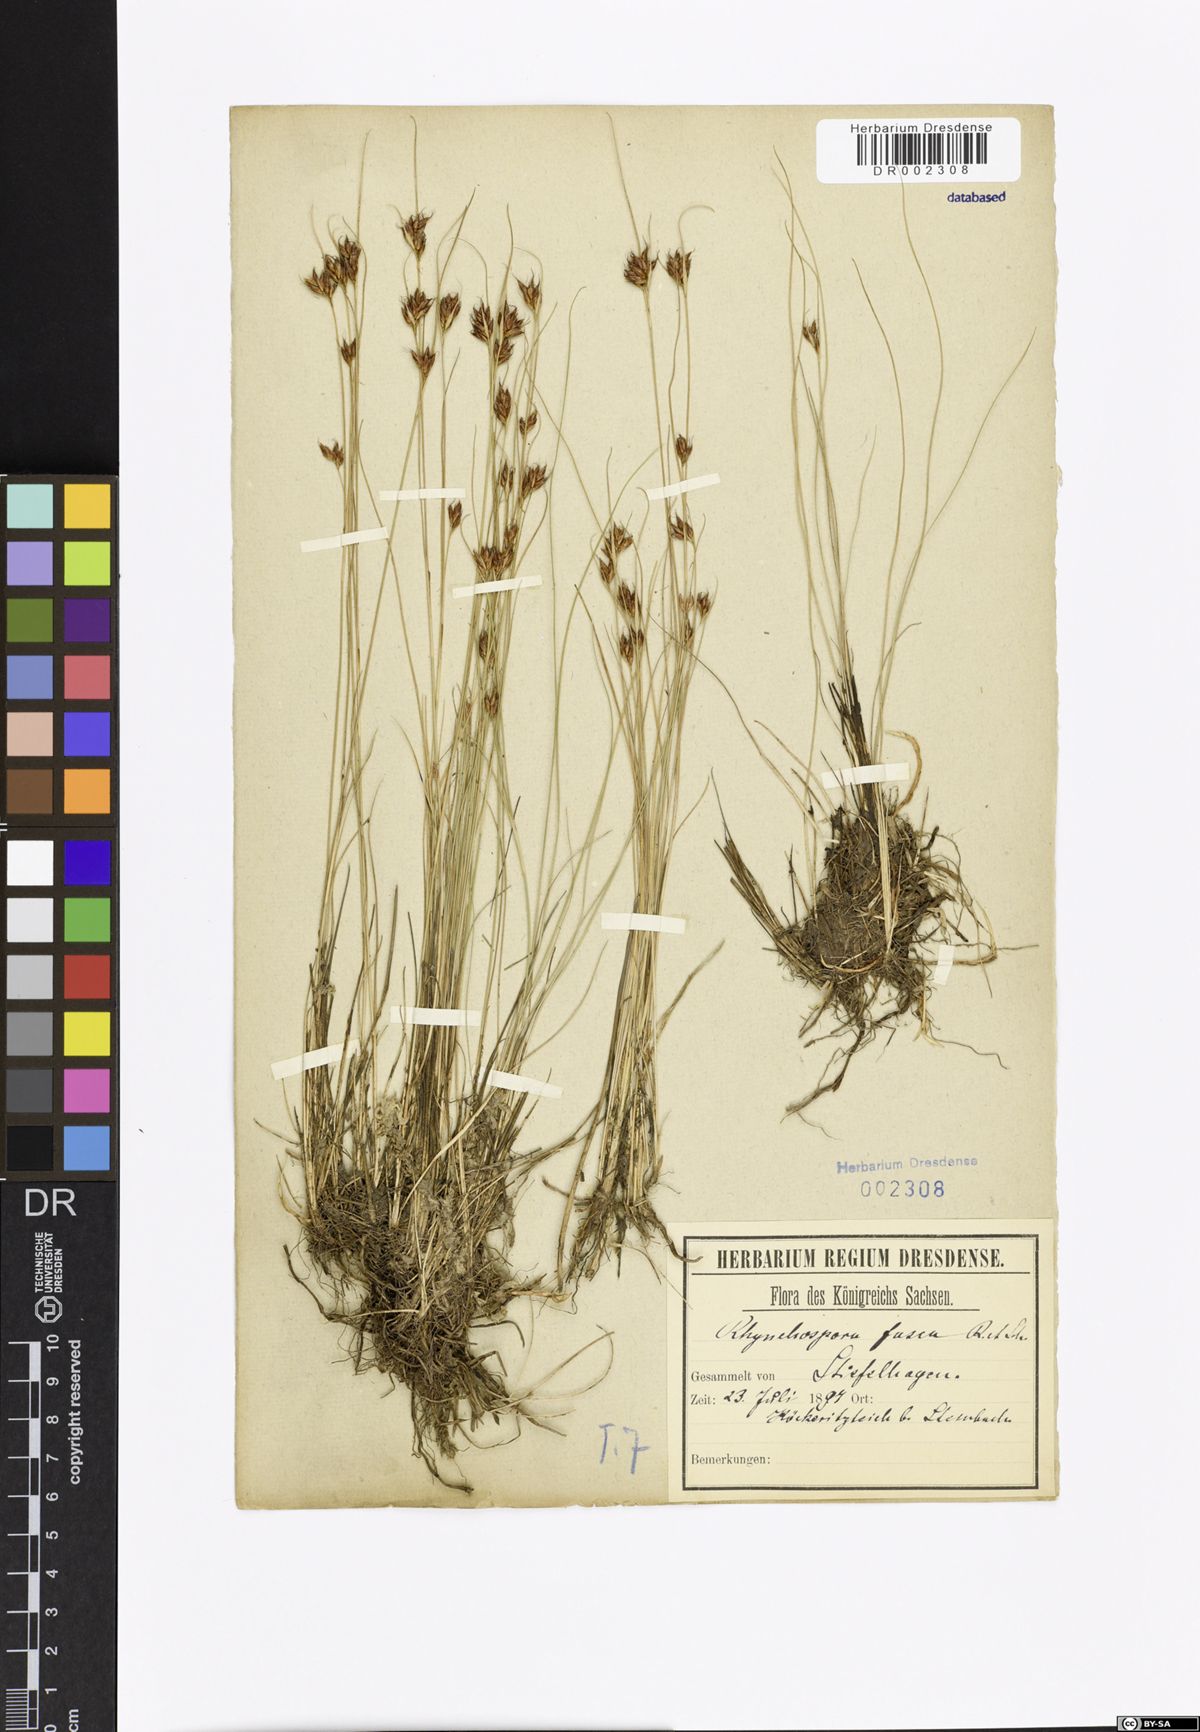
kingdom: Plantae
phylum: Tracheophyta
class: Liliopsida
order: Poales
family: Cyperaceae
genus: Rhynchospora
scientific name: Rhynchospora fusca
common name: Brown beak-sedge
